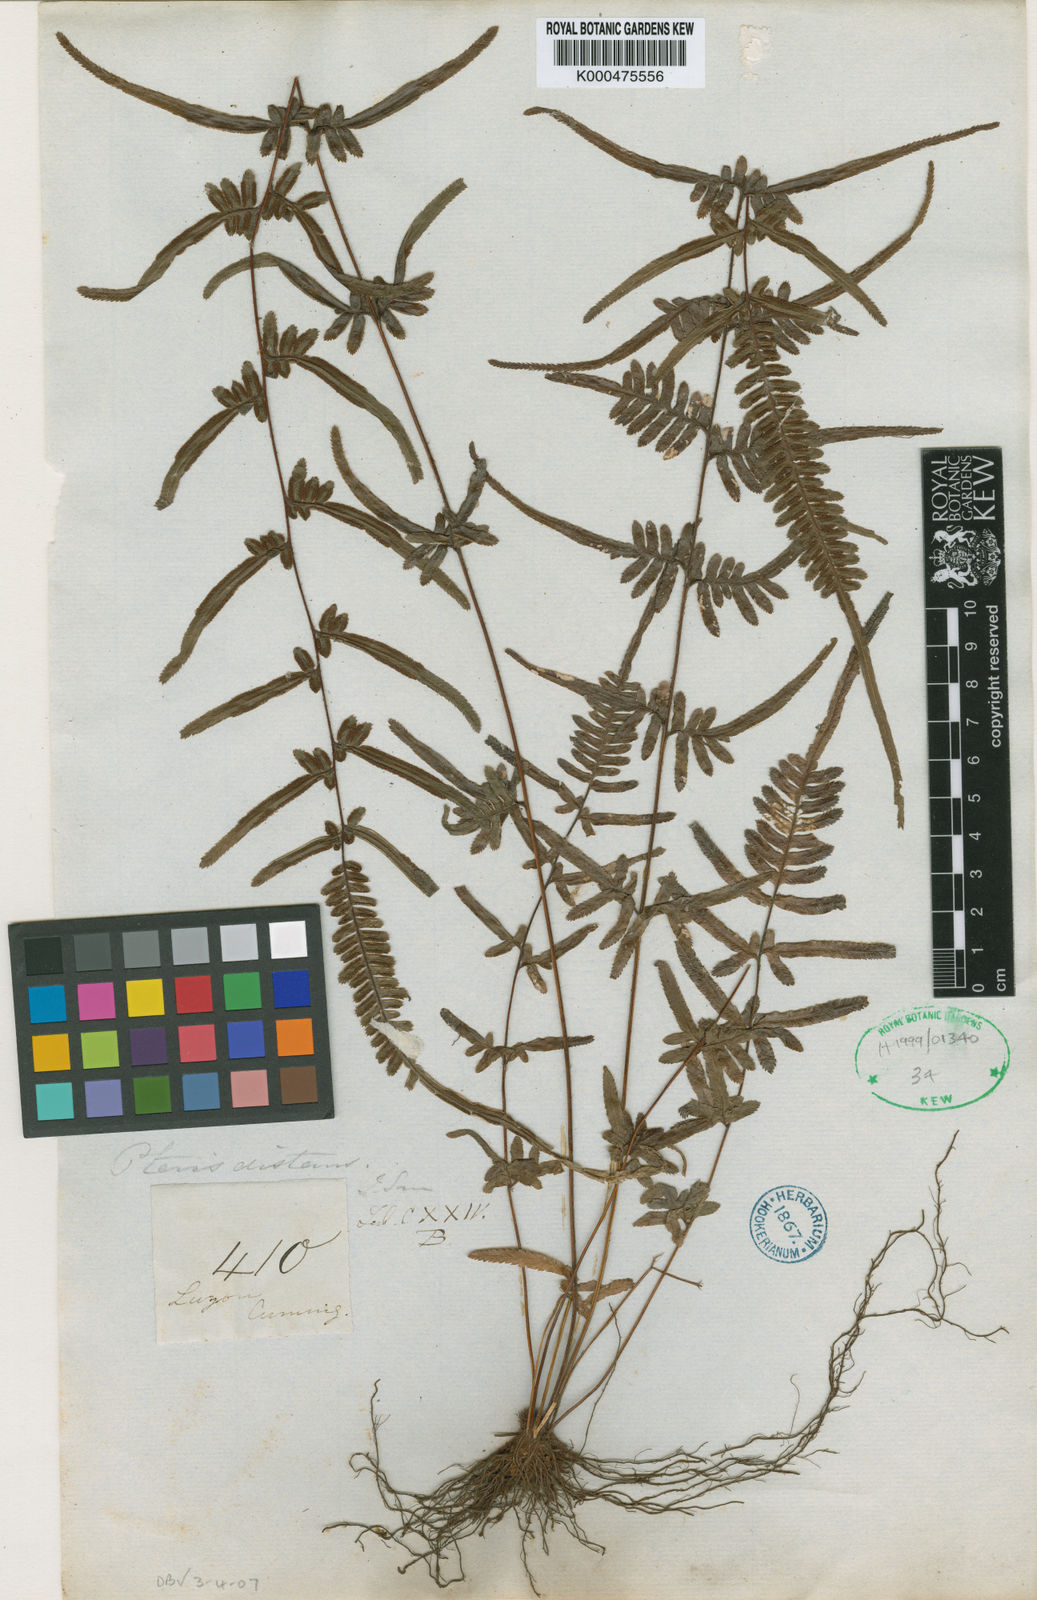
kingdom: Plantae
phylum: Tracheophyta
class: Polypodiopsida
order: Polypodiales
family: Pteridaceae
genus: Pteris
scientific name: Pteris ensiformis
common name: Sword brake
